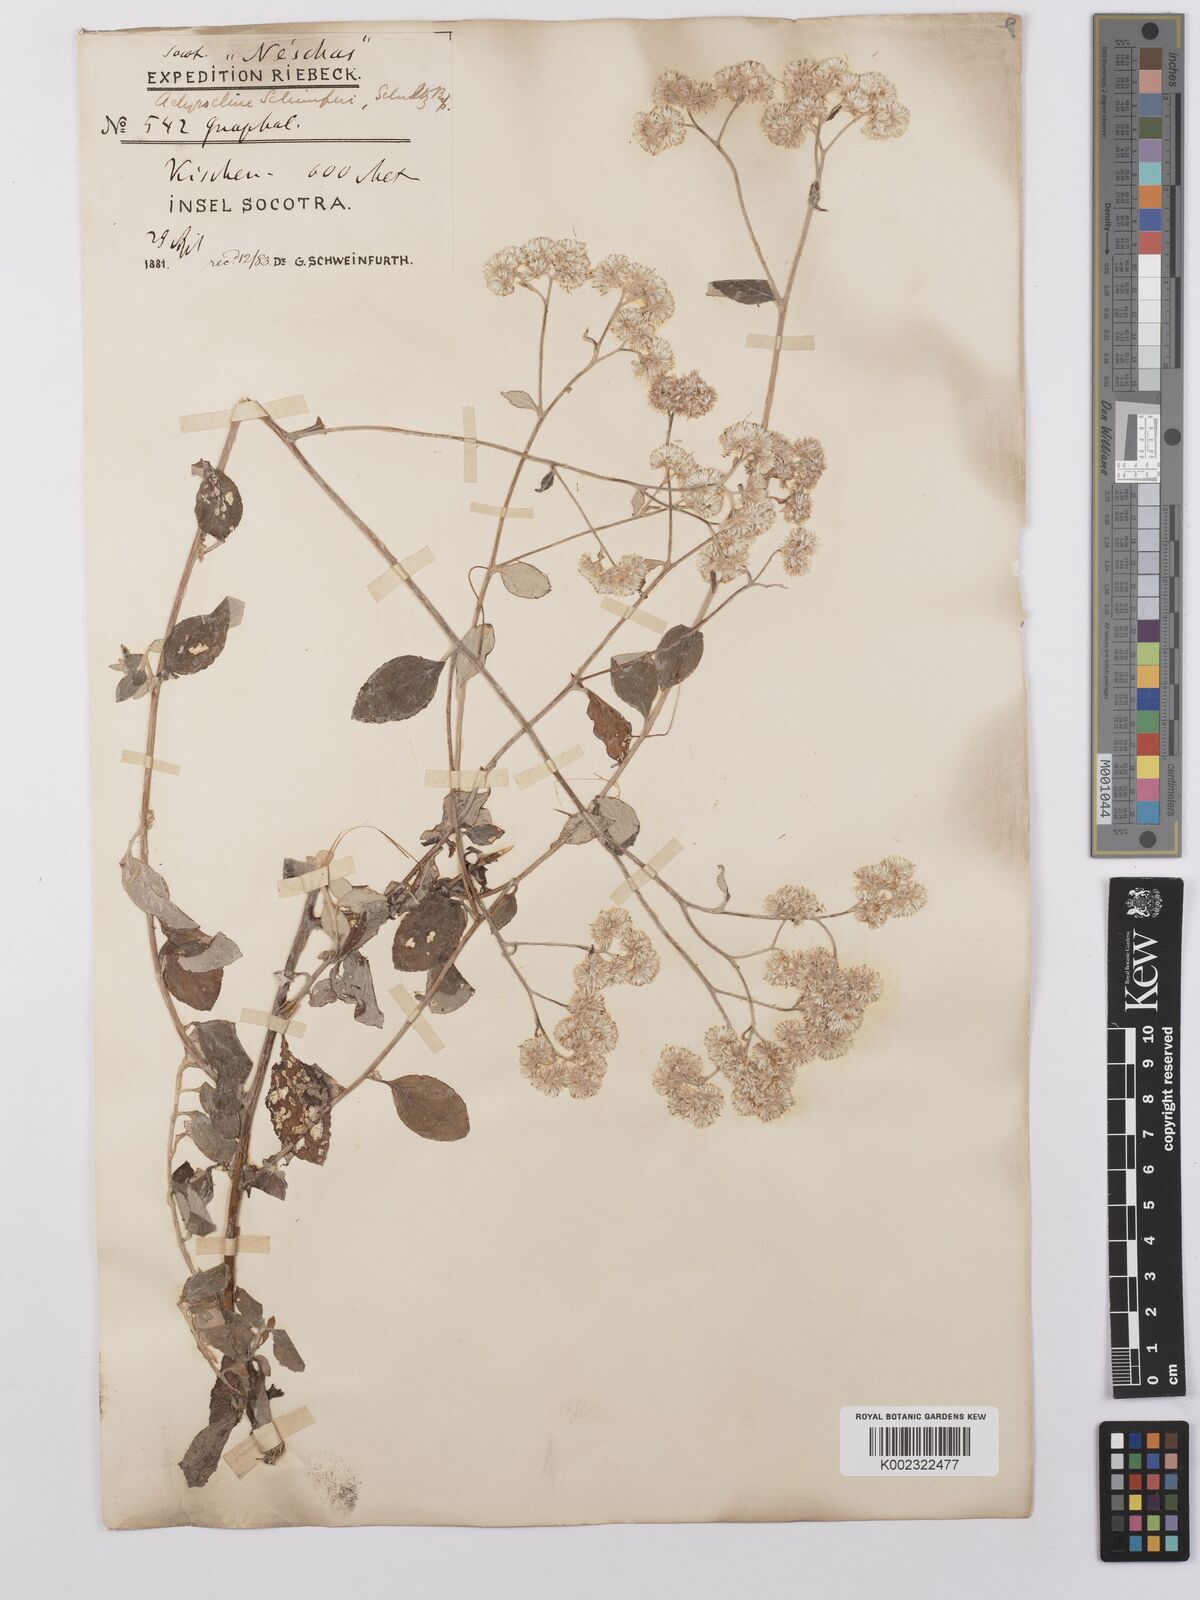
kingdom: Plantae
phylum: Tracheophyta
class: Magnoliopsida
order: Asterales
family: Asteraceae
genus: Helichrysum
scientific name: Helichrysum schimperi
